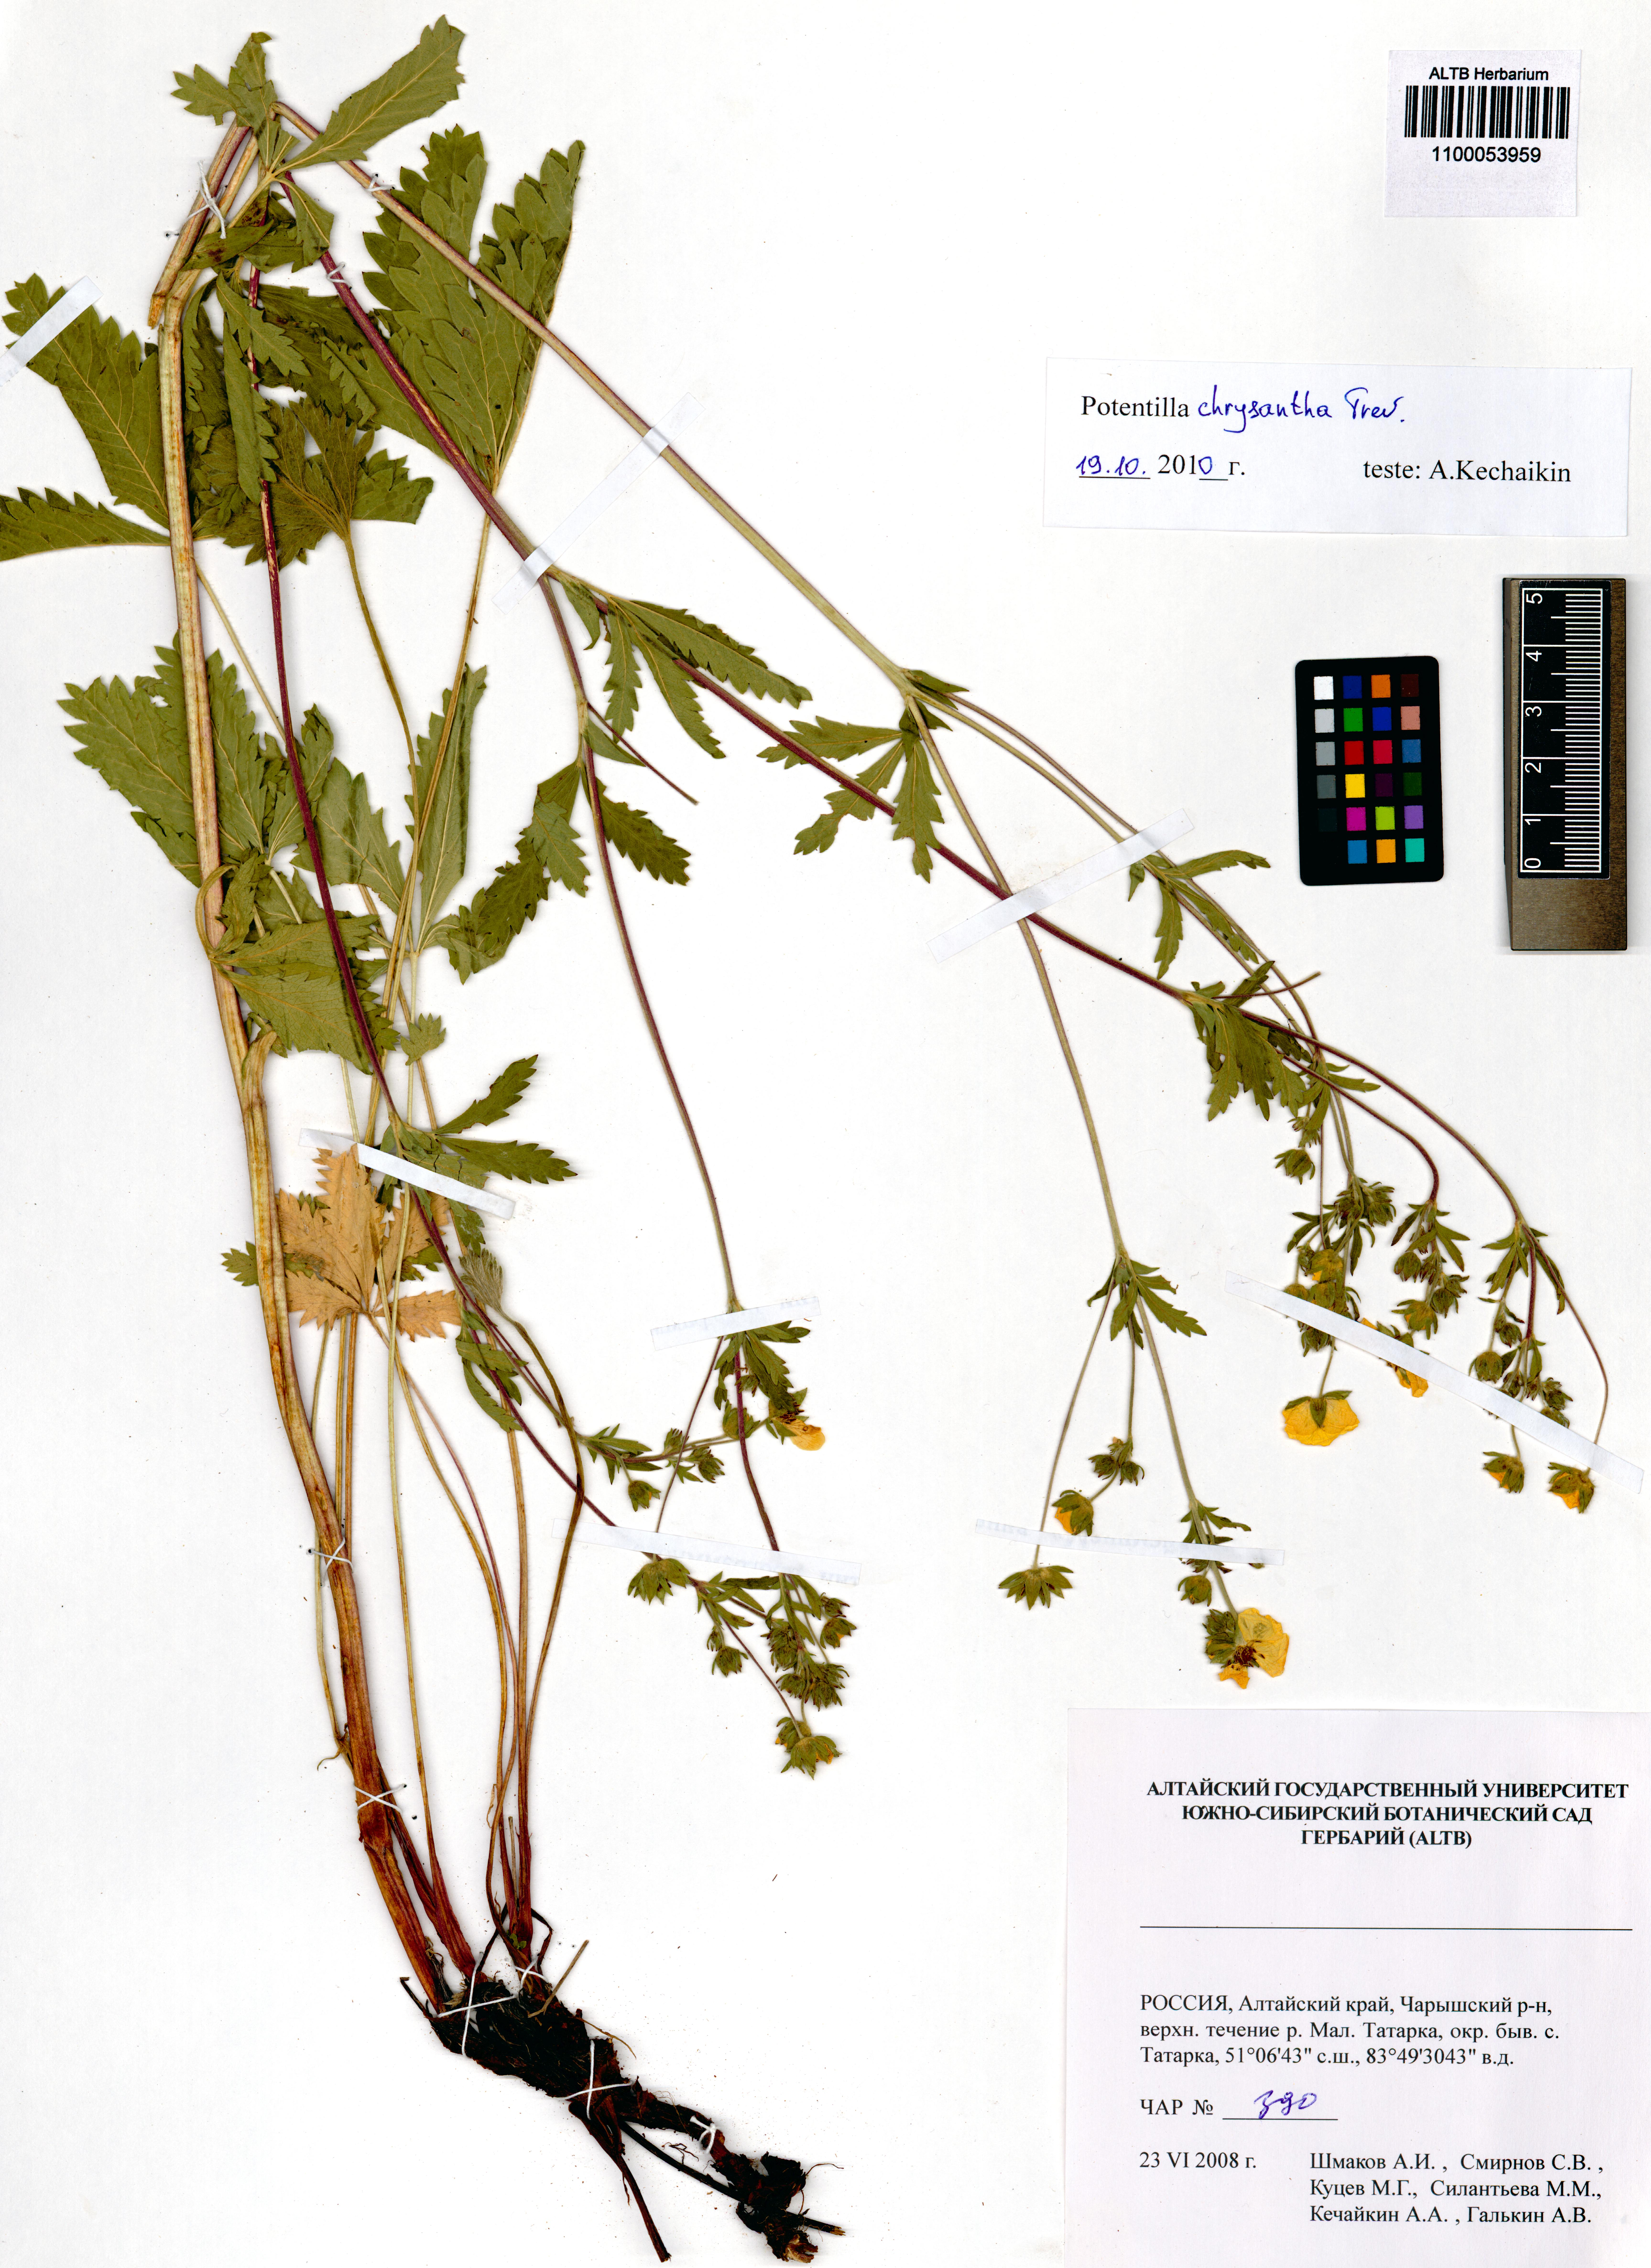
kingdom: Plantae
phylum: Tracheophyta
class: Magnoliopsida
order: Rosales
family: Rosaceae
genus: Potentilla
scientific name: Potentilla chrysantha
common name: Thuringian cinquefoil
